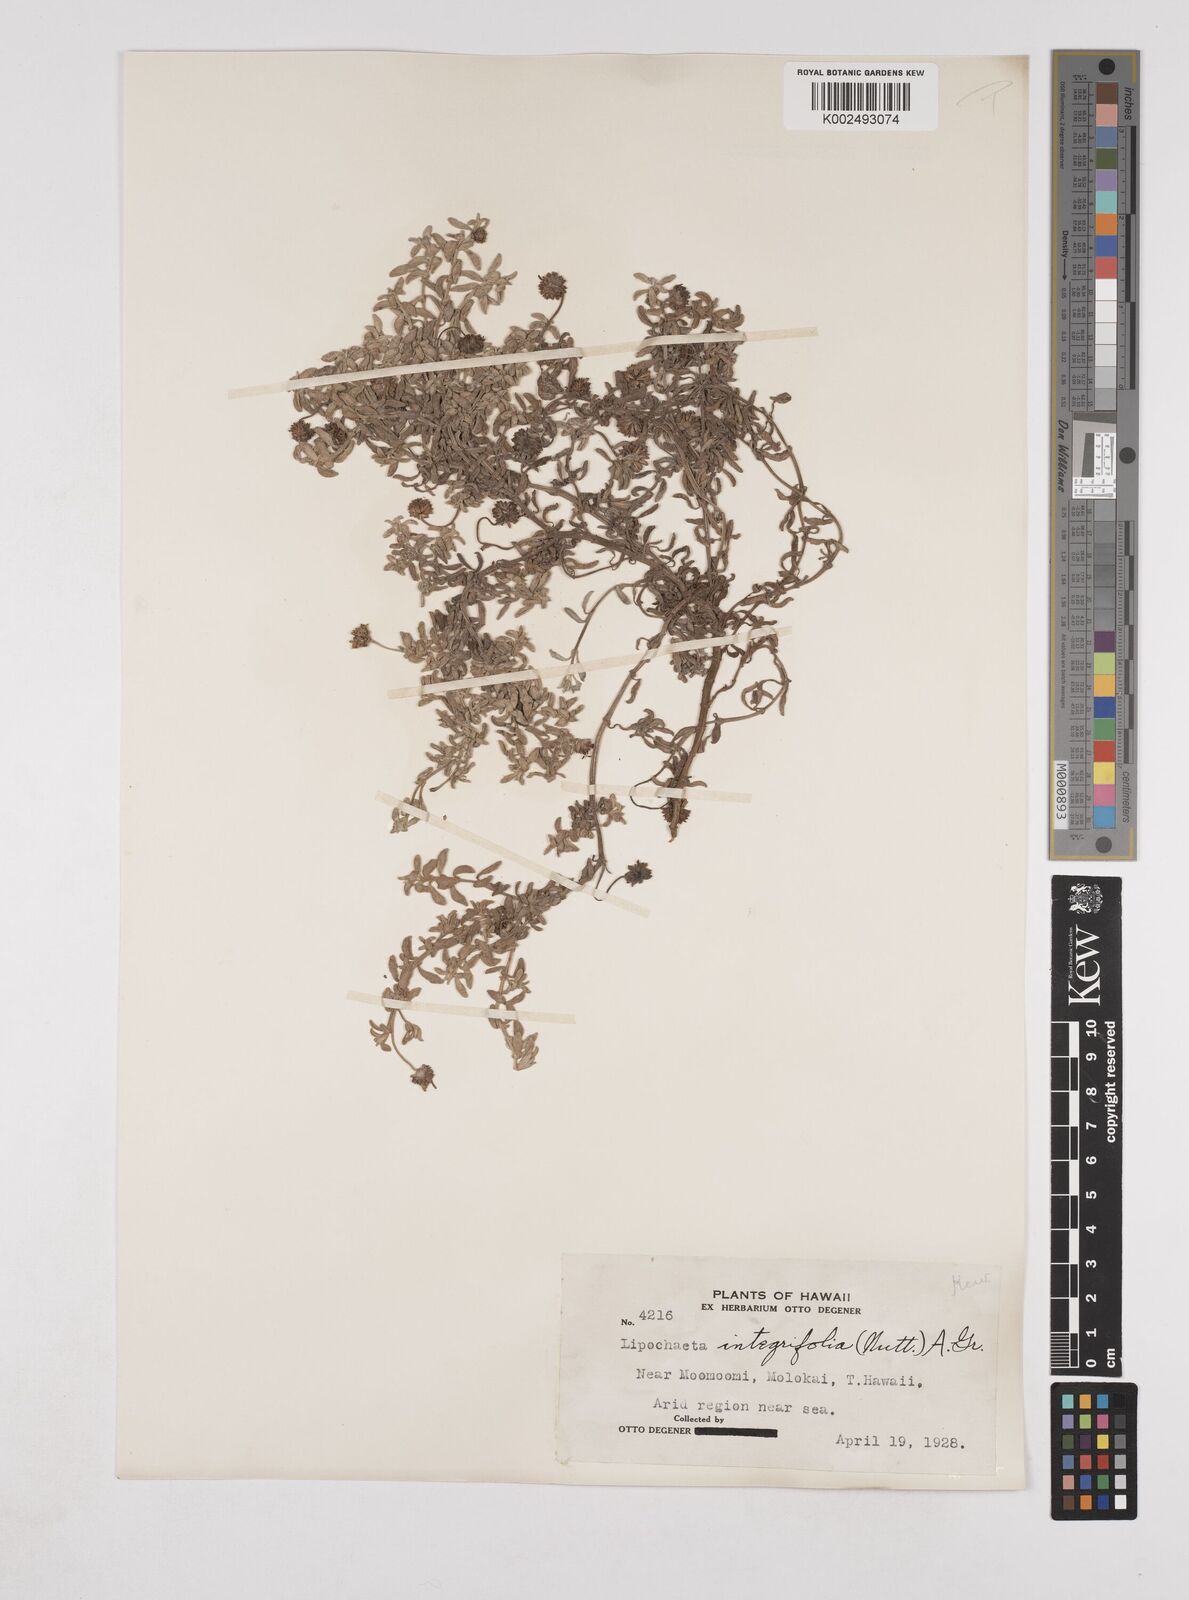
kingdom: Plantae
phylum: Tracheophyta
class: Magnoliopsida
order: Asterales
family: Asteraceae
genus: Lipochaeta
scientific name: Lipochaeta integrifolia
